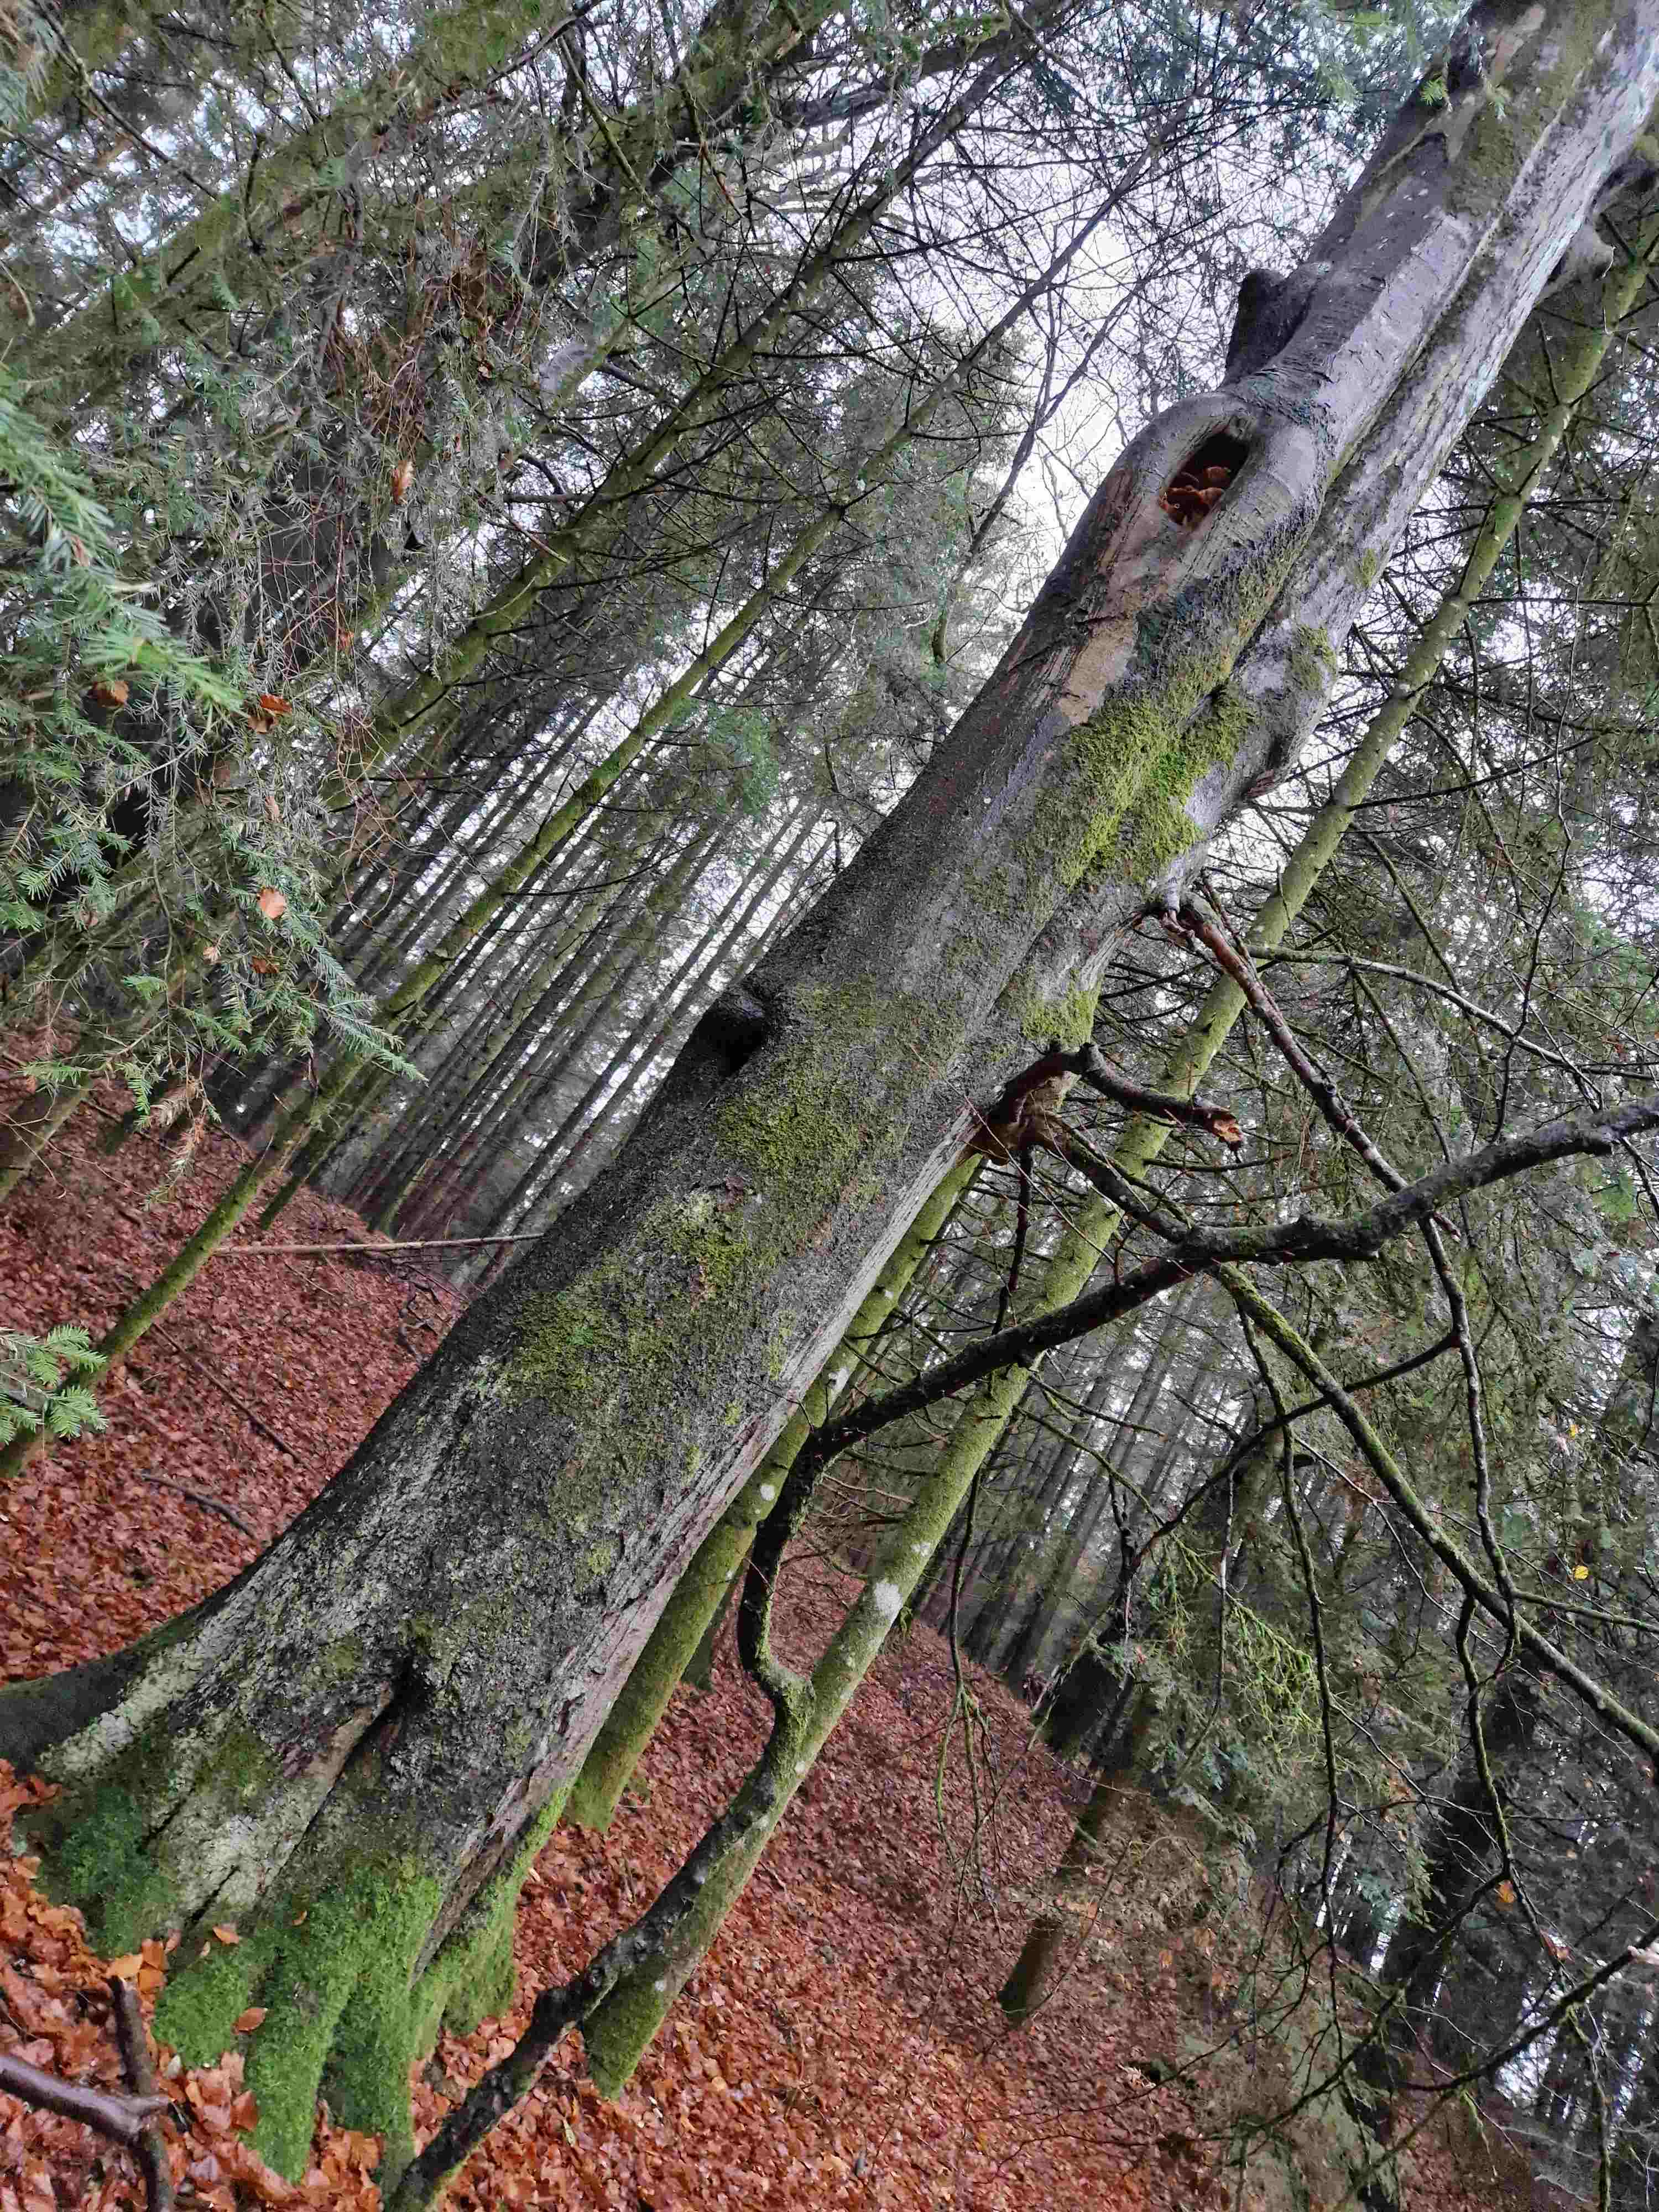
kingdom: Fungi
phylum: Basidiomycota
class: Agaricomycetes
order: Agaricales
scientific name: Agaricales
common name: champignonordenen
